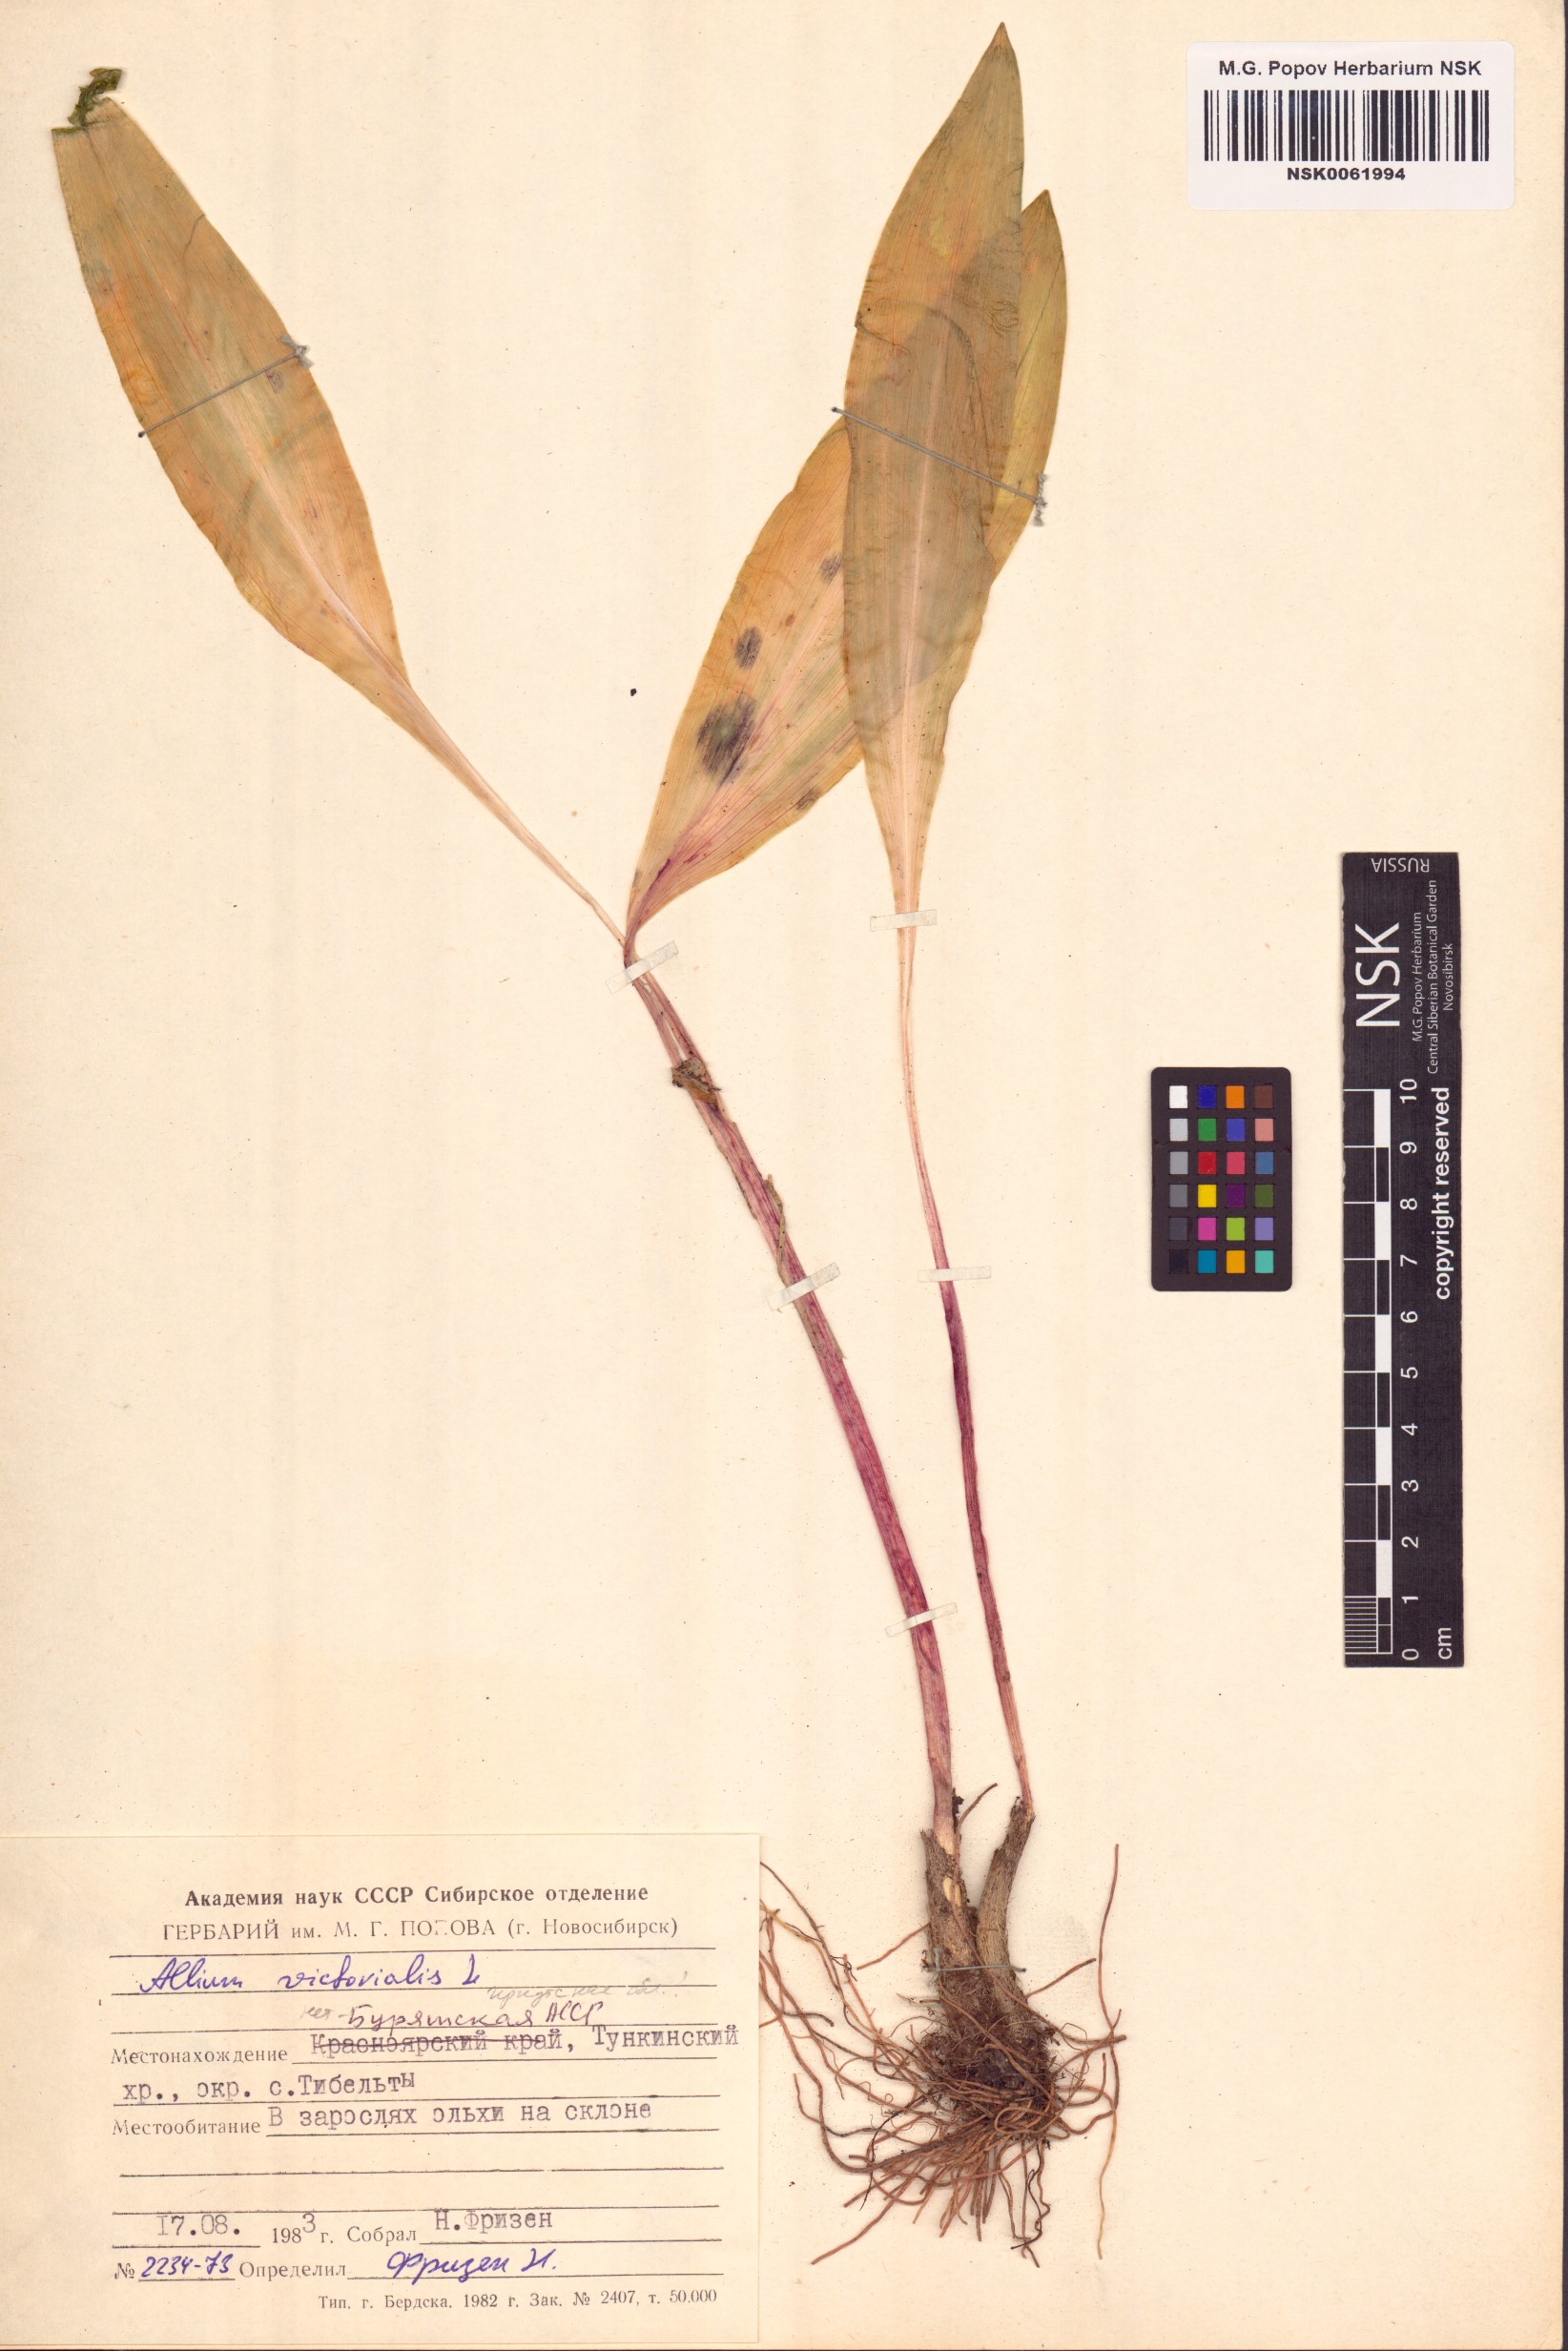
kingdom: Plantae
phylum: Tracheophyta
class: Liliopsida
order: Asparagales
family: Amaryllidaceae
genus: Allium
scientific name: Allium victorialis
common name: Alpine leek
